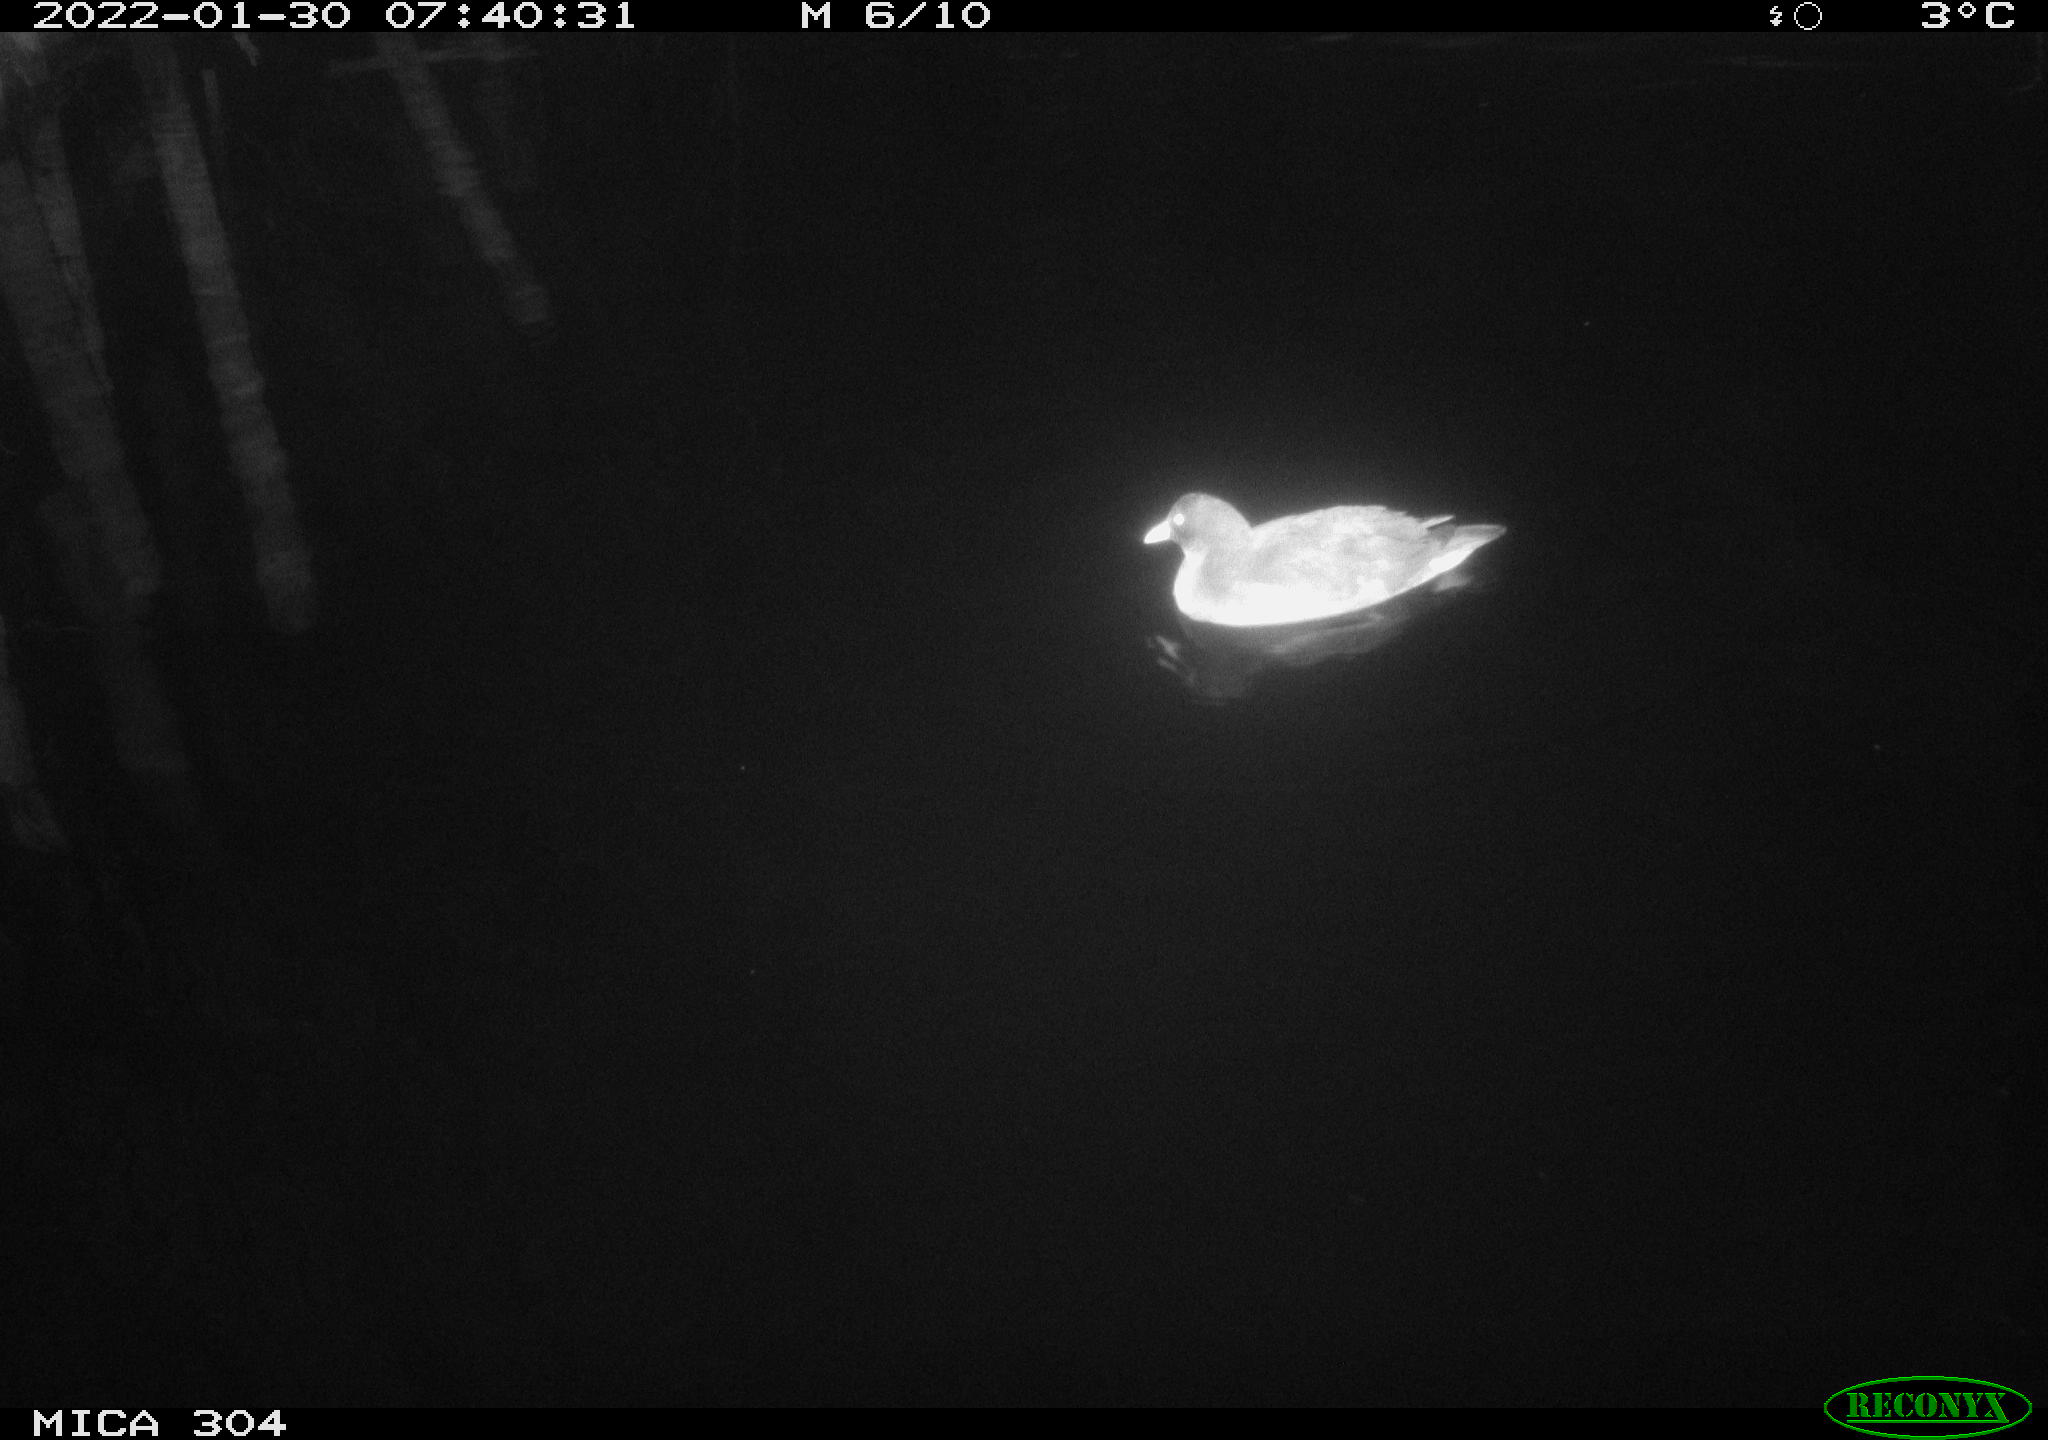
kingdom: Animalia
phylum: Chordata
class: Aves
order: Anseriformes
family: Anatidae
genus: Anas
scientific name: Anas
